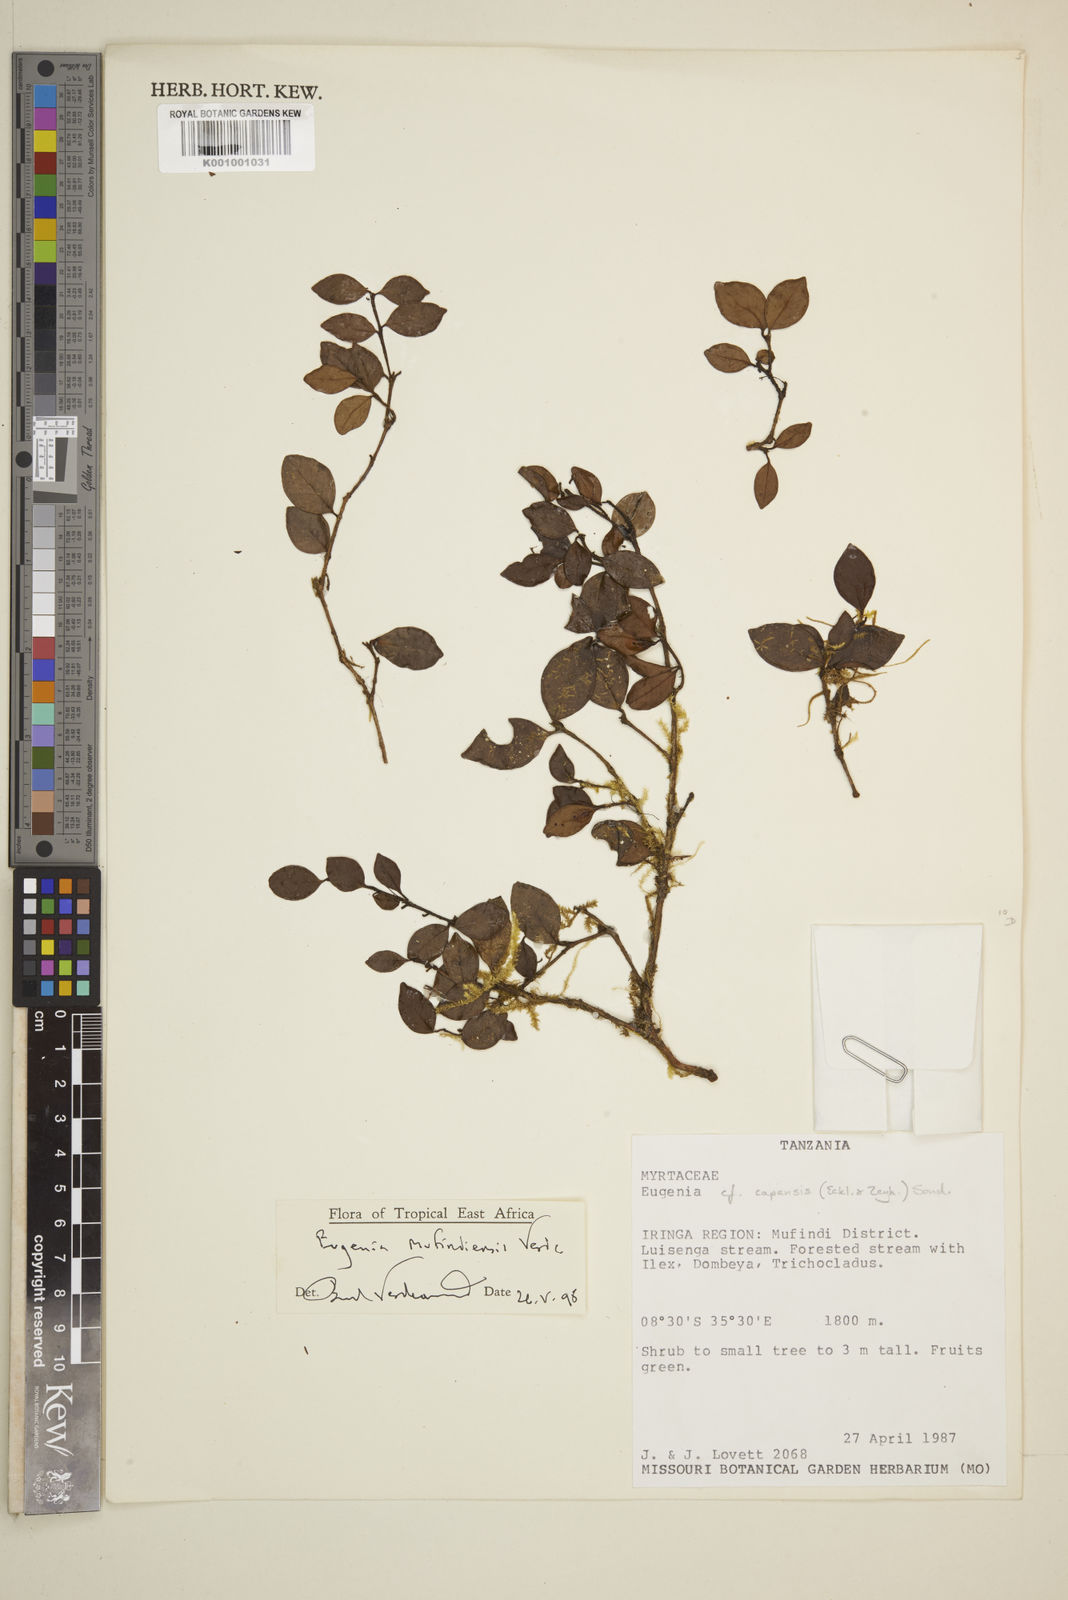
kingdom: Plantae
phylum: Tracheophyta
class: Magnoliopsida
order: Myrtales
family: Myrtaceae
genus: Eugenia
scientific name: Eugenia mufindiensis
